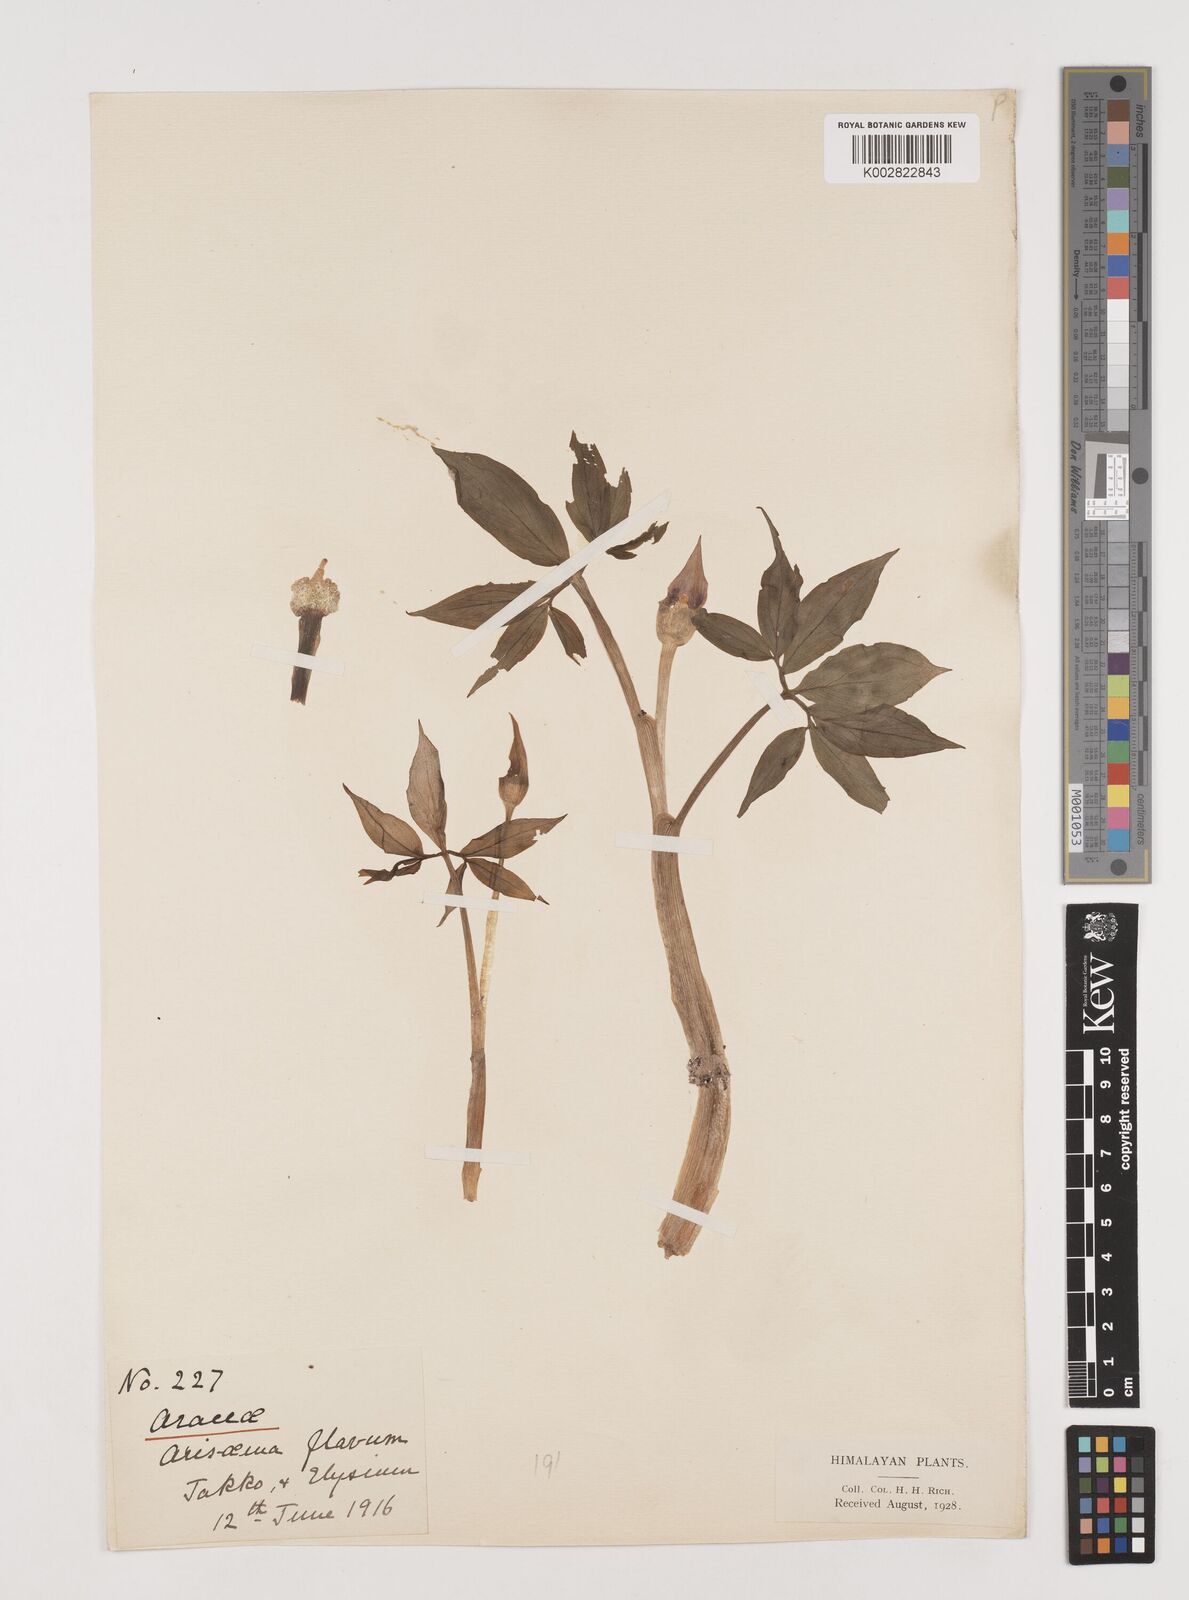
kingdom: Plantae
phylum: Tracheophyta
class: Liliopsida
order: Alismatales
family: Araceae
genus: Arisaema
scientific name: Arisaema flavum
